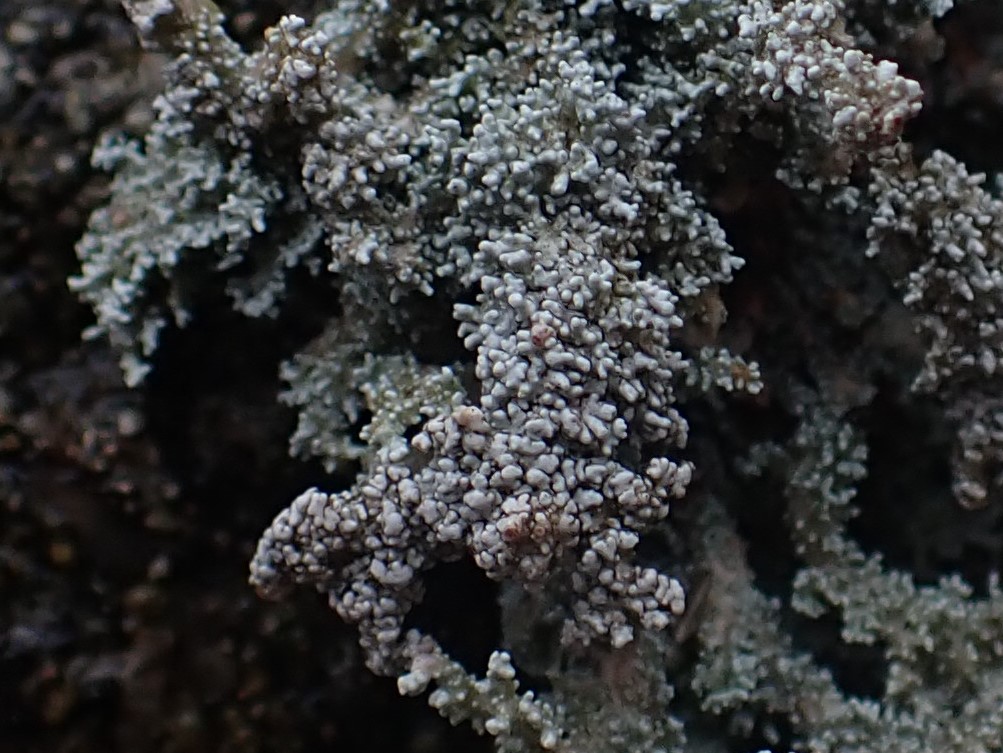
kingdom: Fungi
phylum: Ascomycota
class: Lecanoromycetes
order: Lecanorales
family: Stereocaulaceae
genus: Stereocaulon
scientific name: Stereocaulon dactylophyllum
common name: finger-korallav
